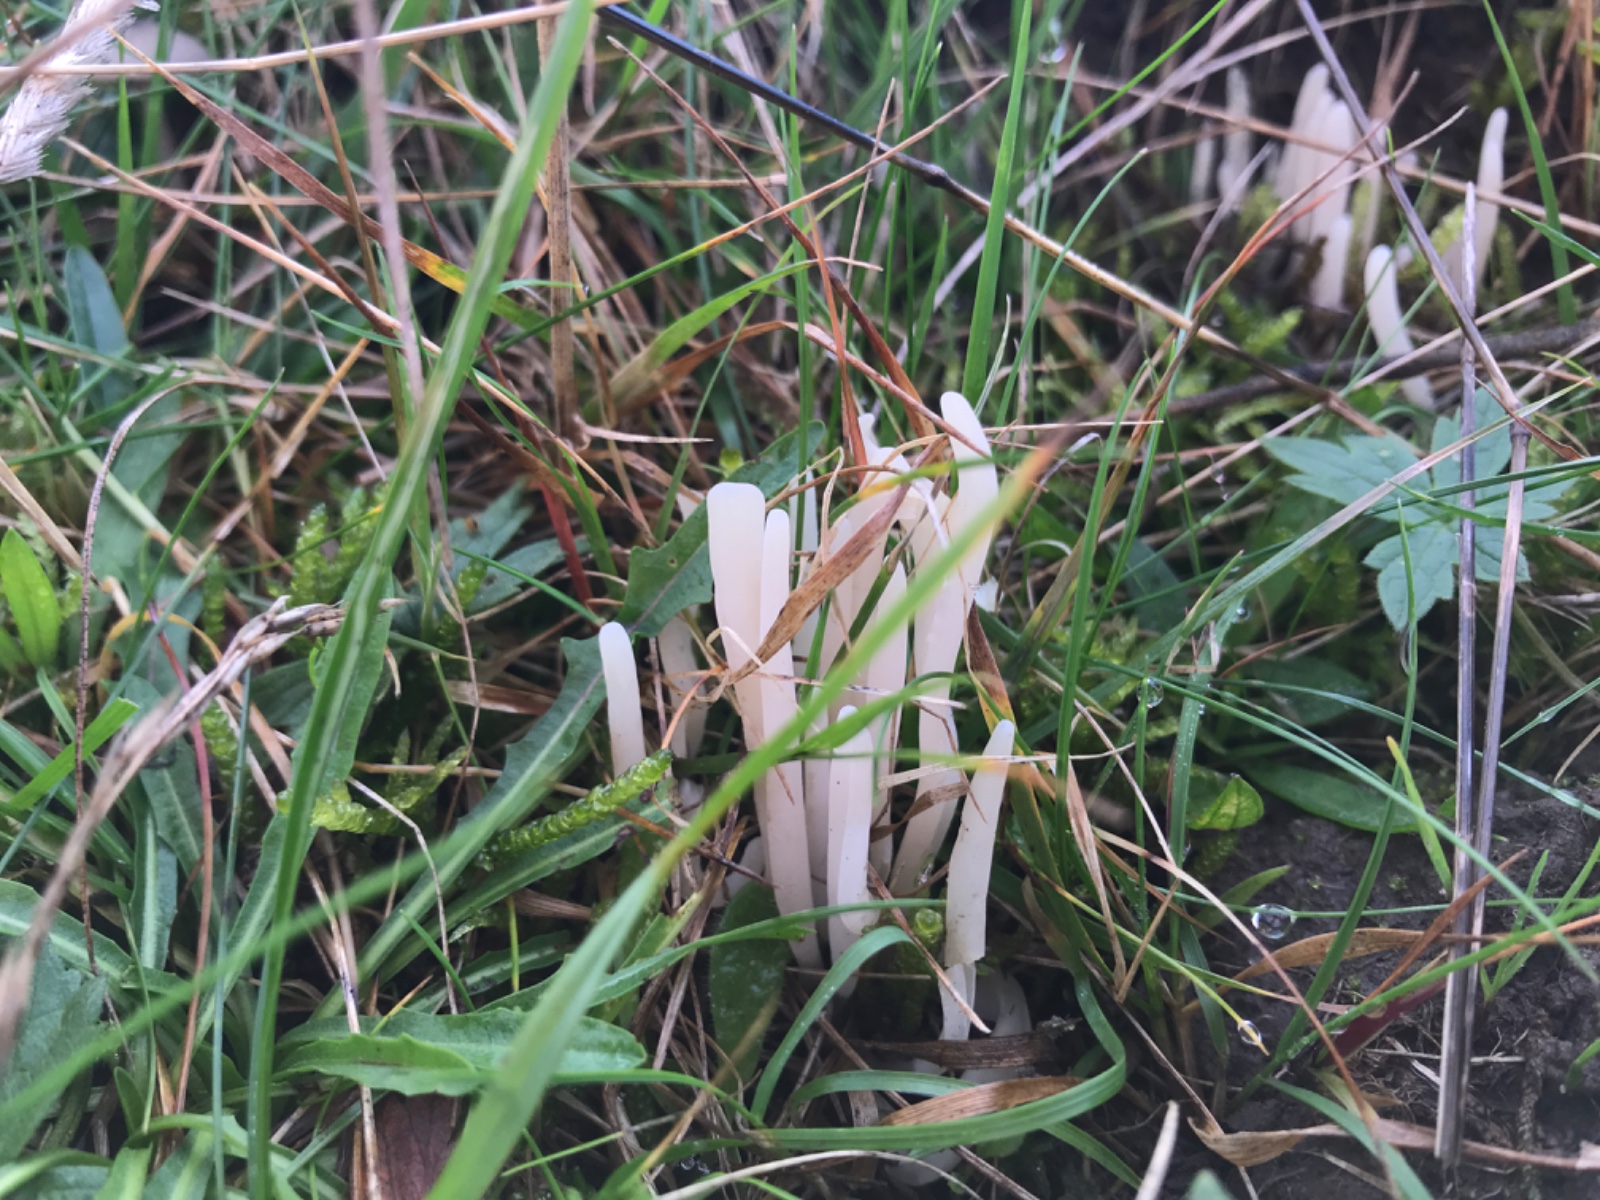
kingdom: Fungi
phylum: Basidiomycota
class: Agaricomycetes
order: Agaricales
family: Clavariaceae
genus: Clavaria
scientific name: Clavaria falcata
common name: hvid køllesvamp
